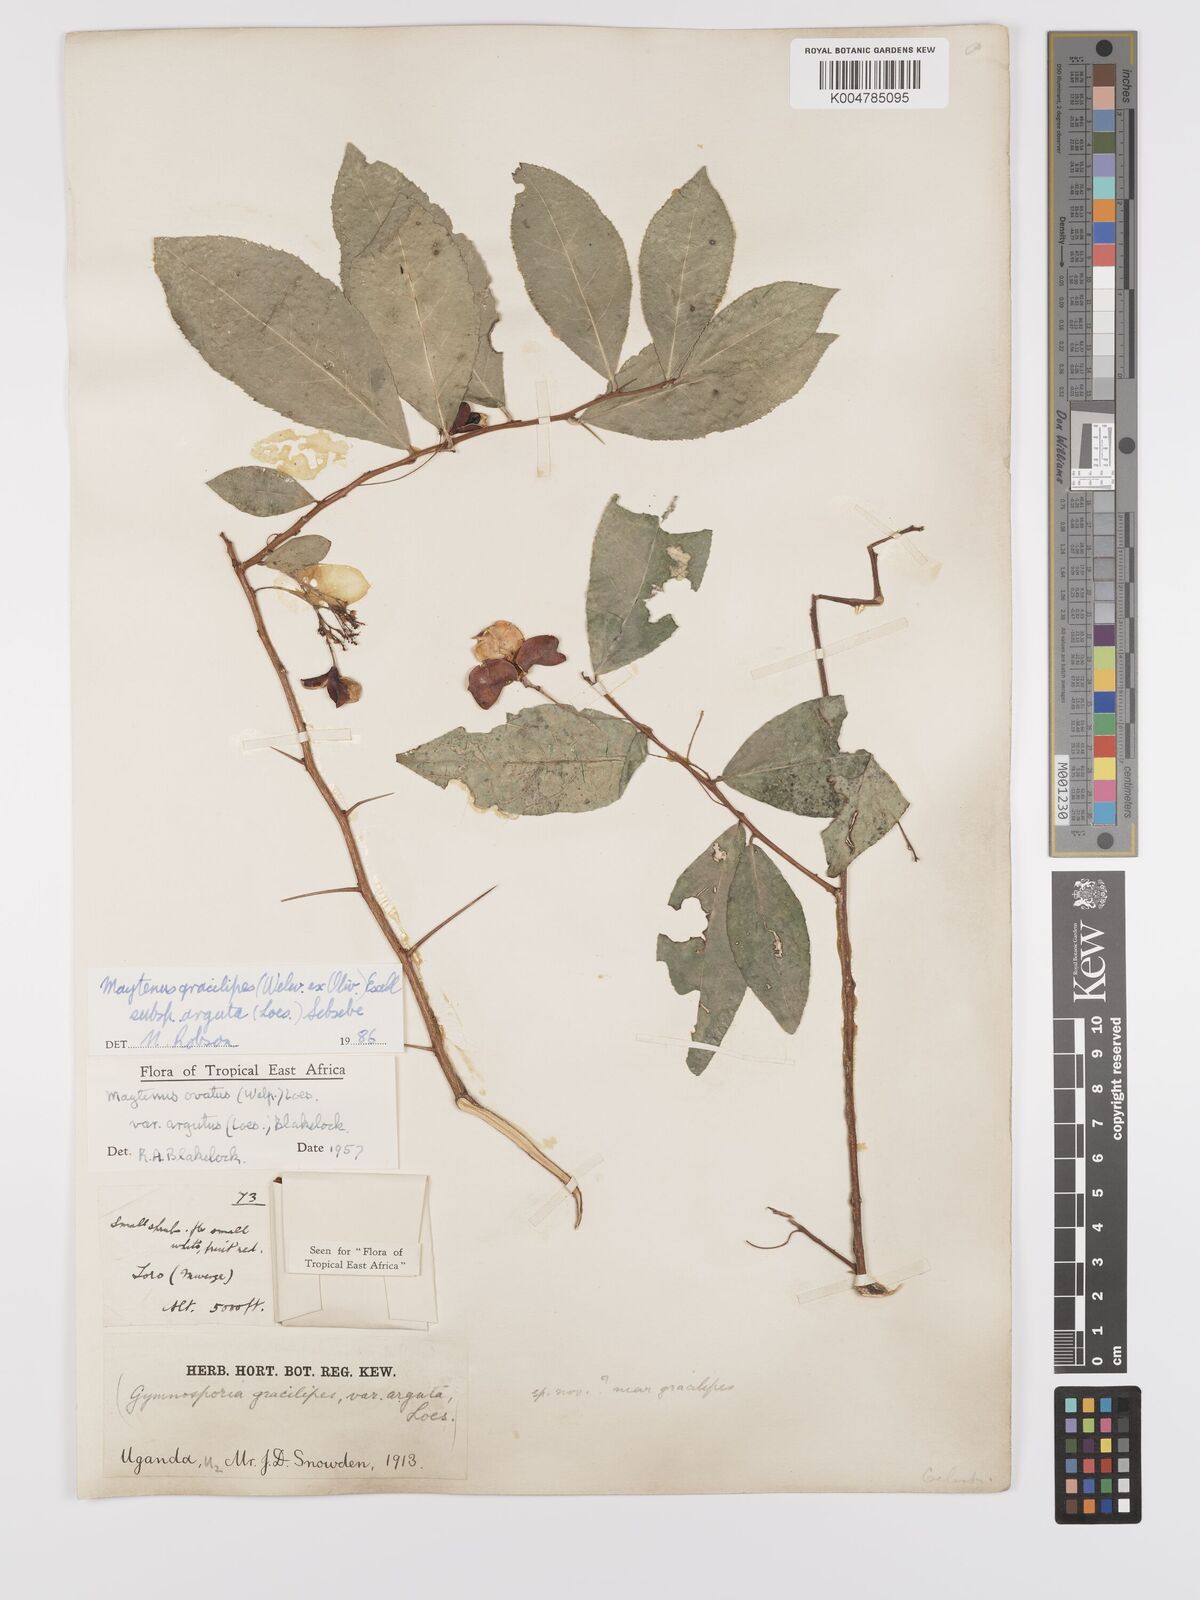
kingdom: Plantae
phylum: Tracheophyta
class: Magnoliopsida
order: Celastrales
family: Celastraceae
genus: Gymnosporia
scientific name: Gymnosporia gracilipes
